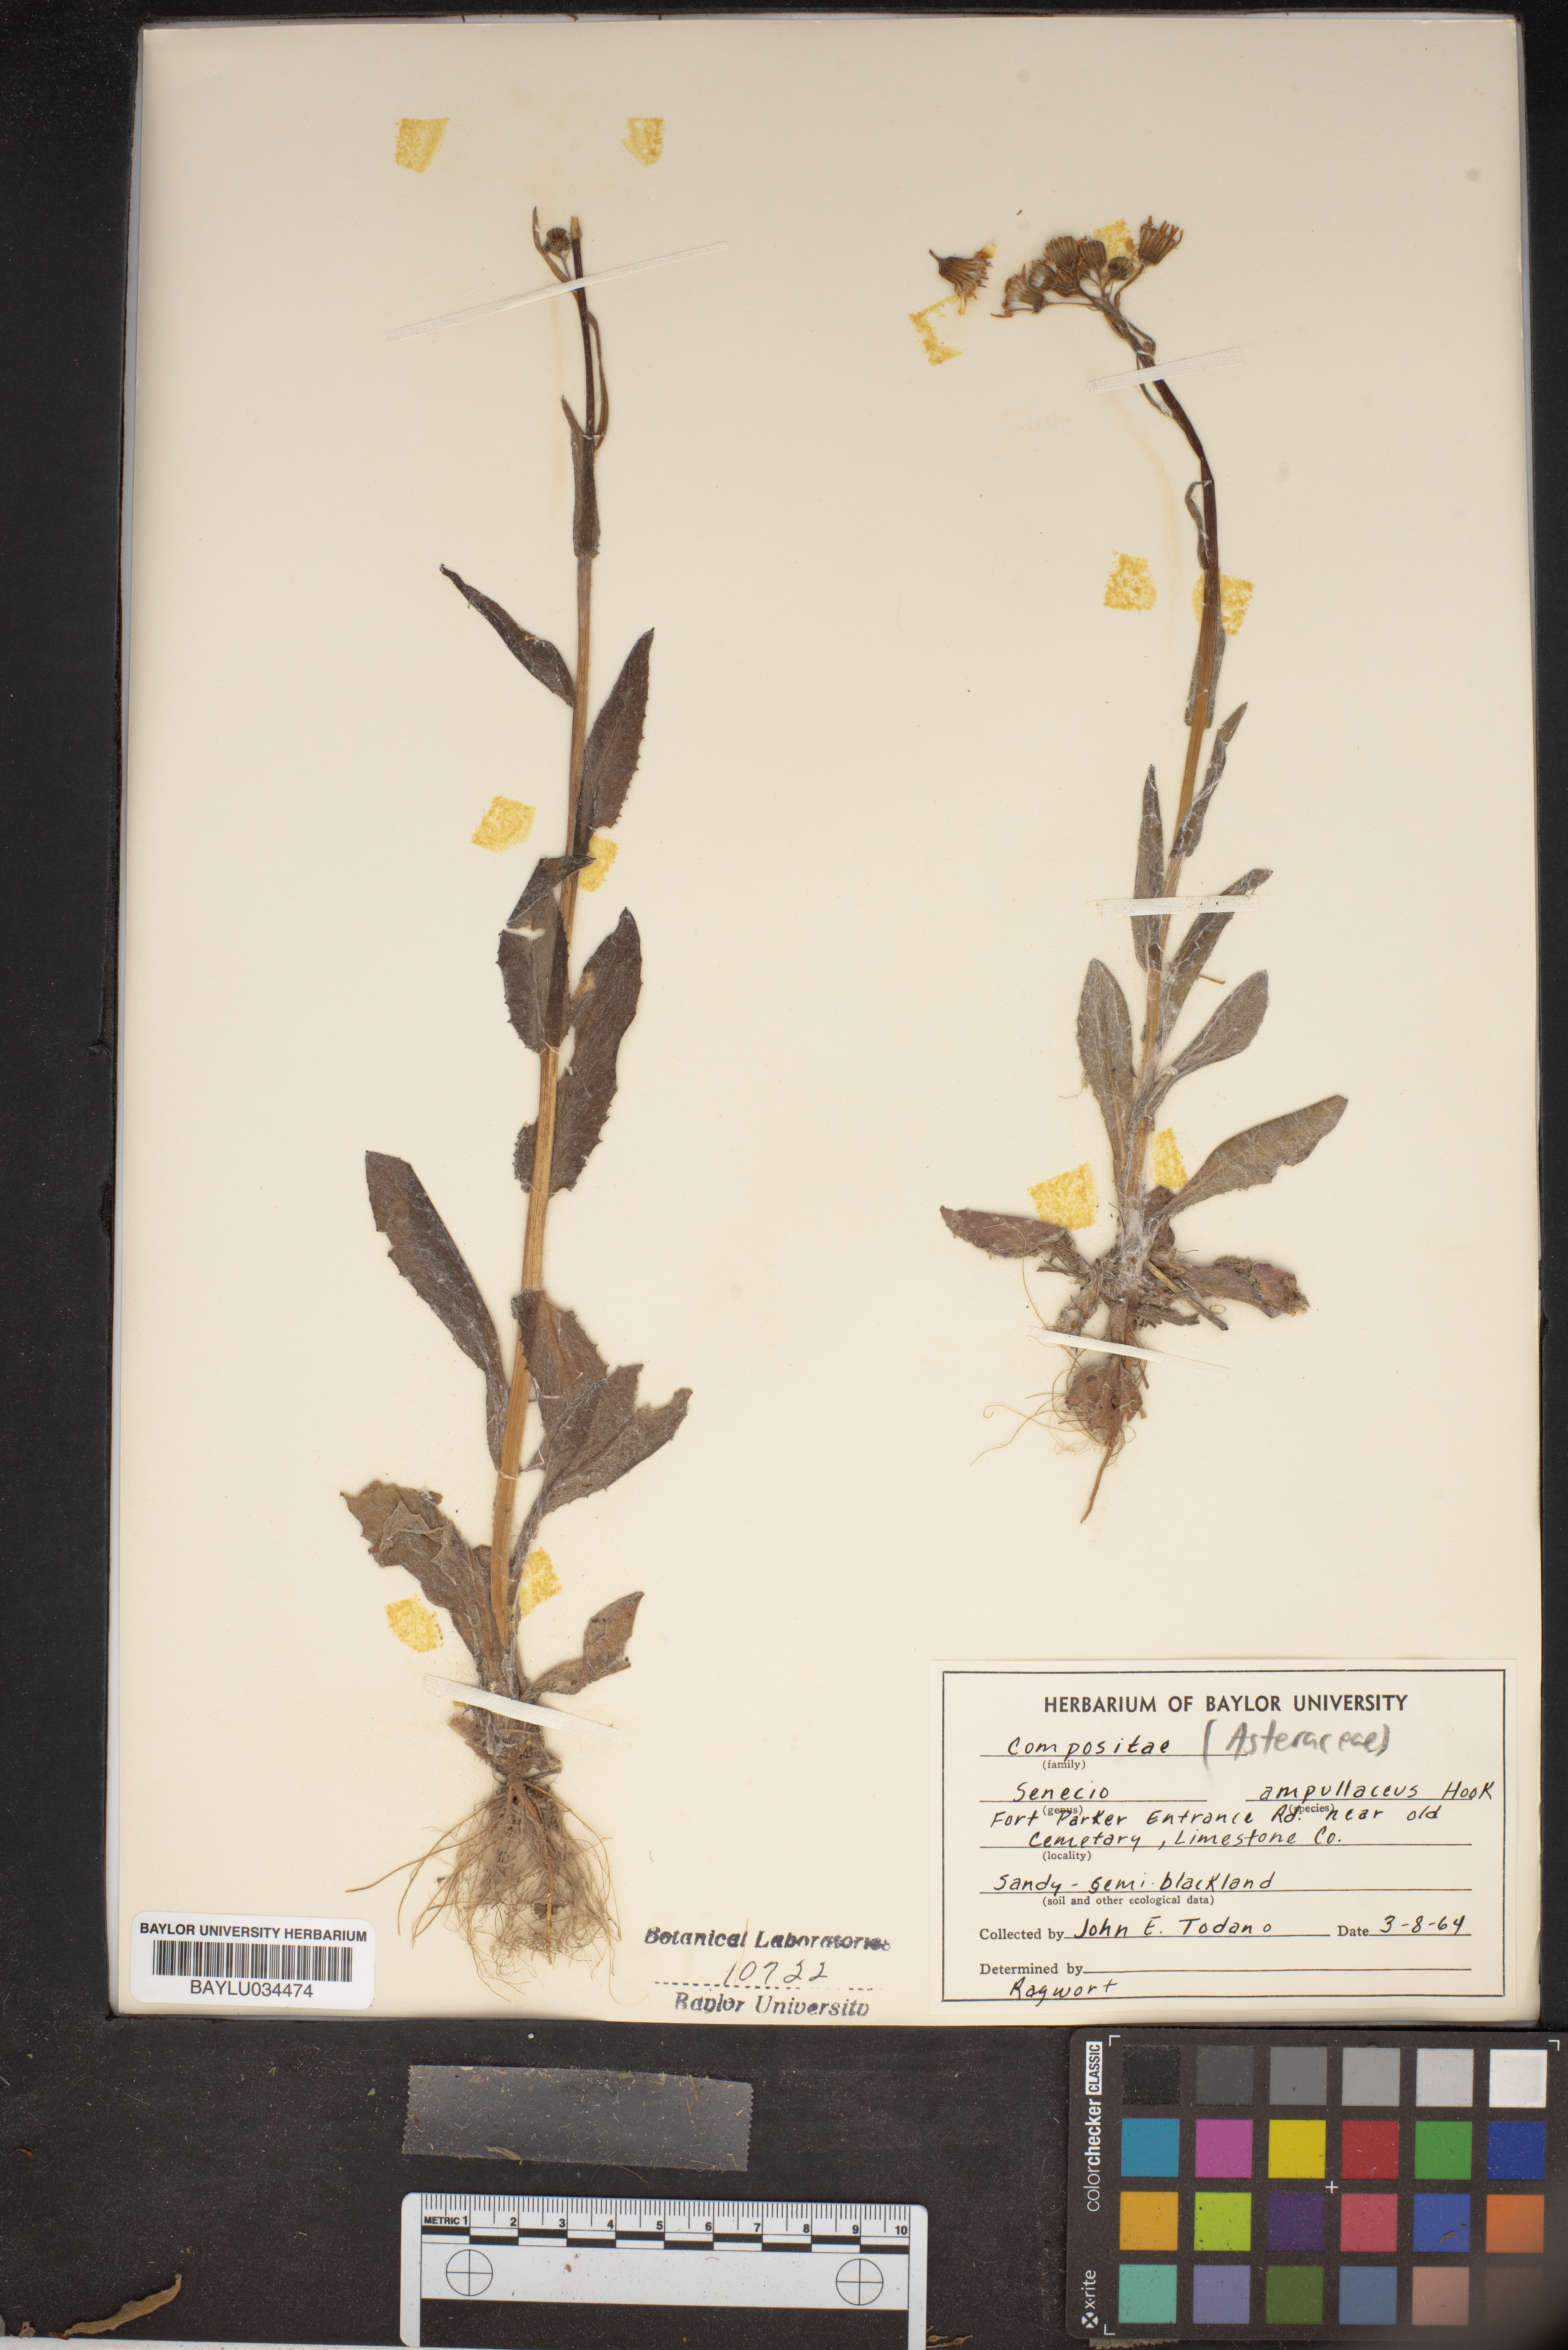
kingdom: Plantae
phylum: Tracheophyta
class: Magnoliopsida
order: Asterales
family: Asteraceae
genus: Senecio
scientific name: Senecio ampullaceus
